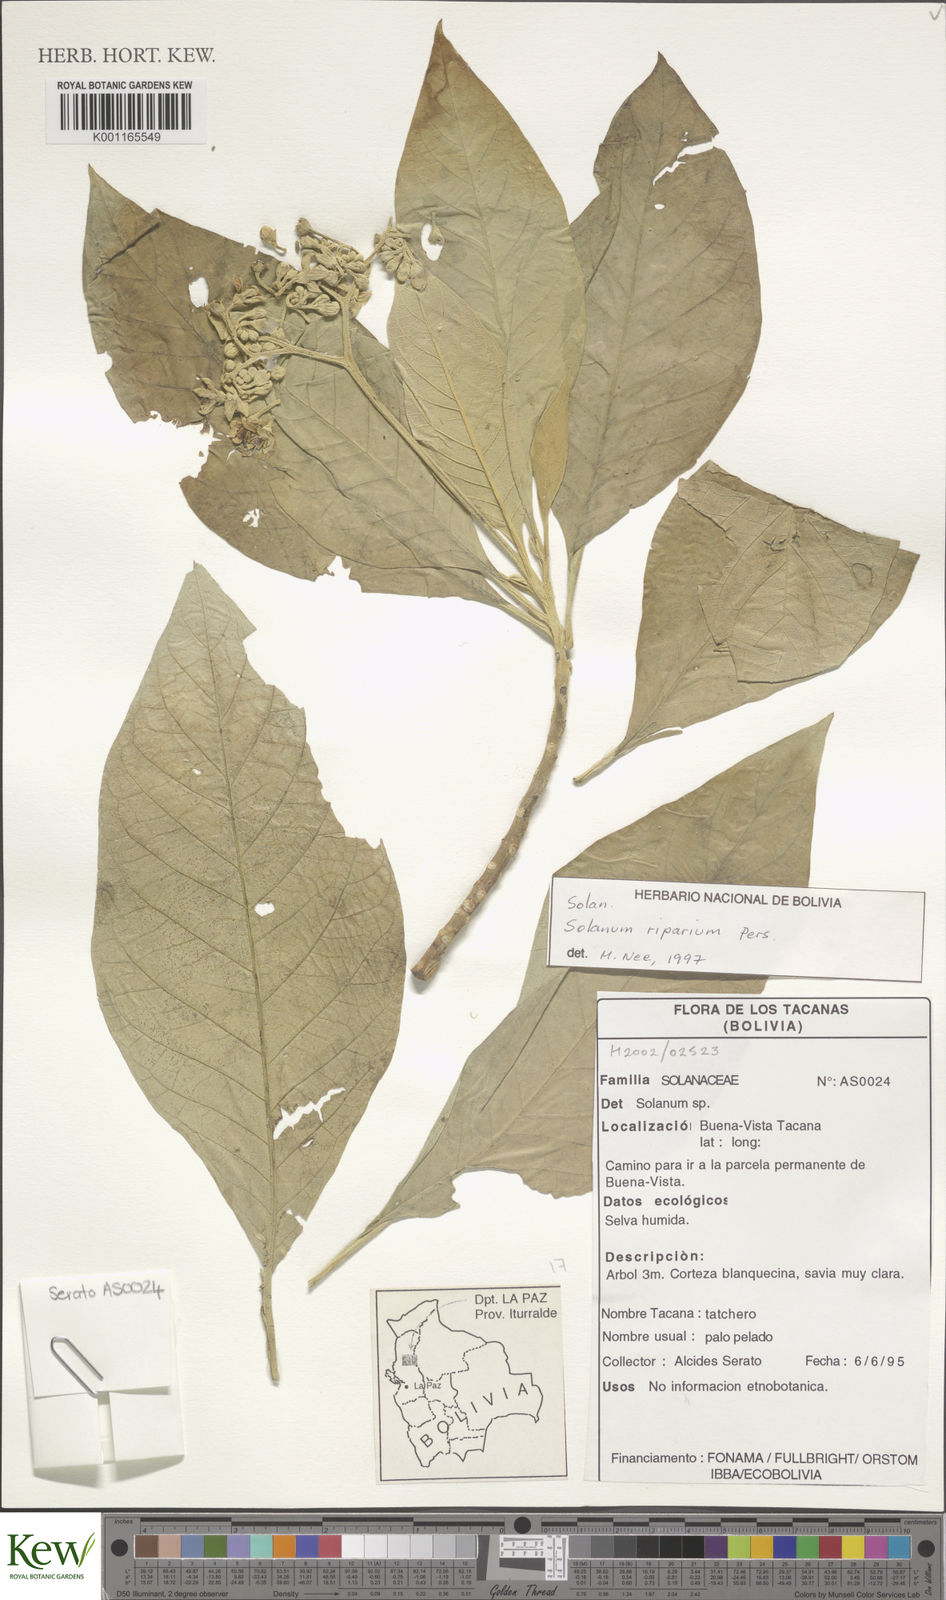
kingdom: Plantae
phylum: Tracheophyta
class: Magnoliopsida
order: Solanales
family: Solanaceae
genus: Solanum
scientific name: Solanum riparium
